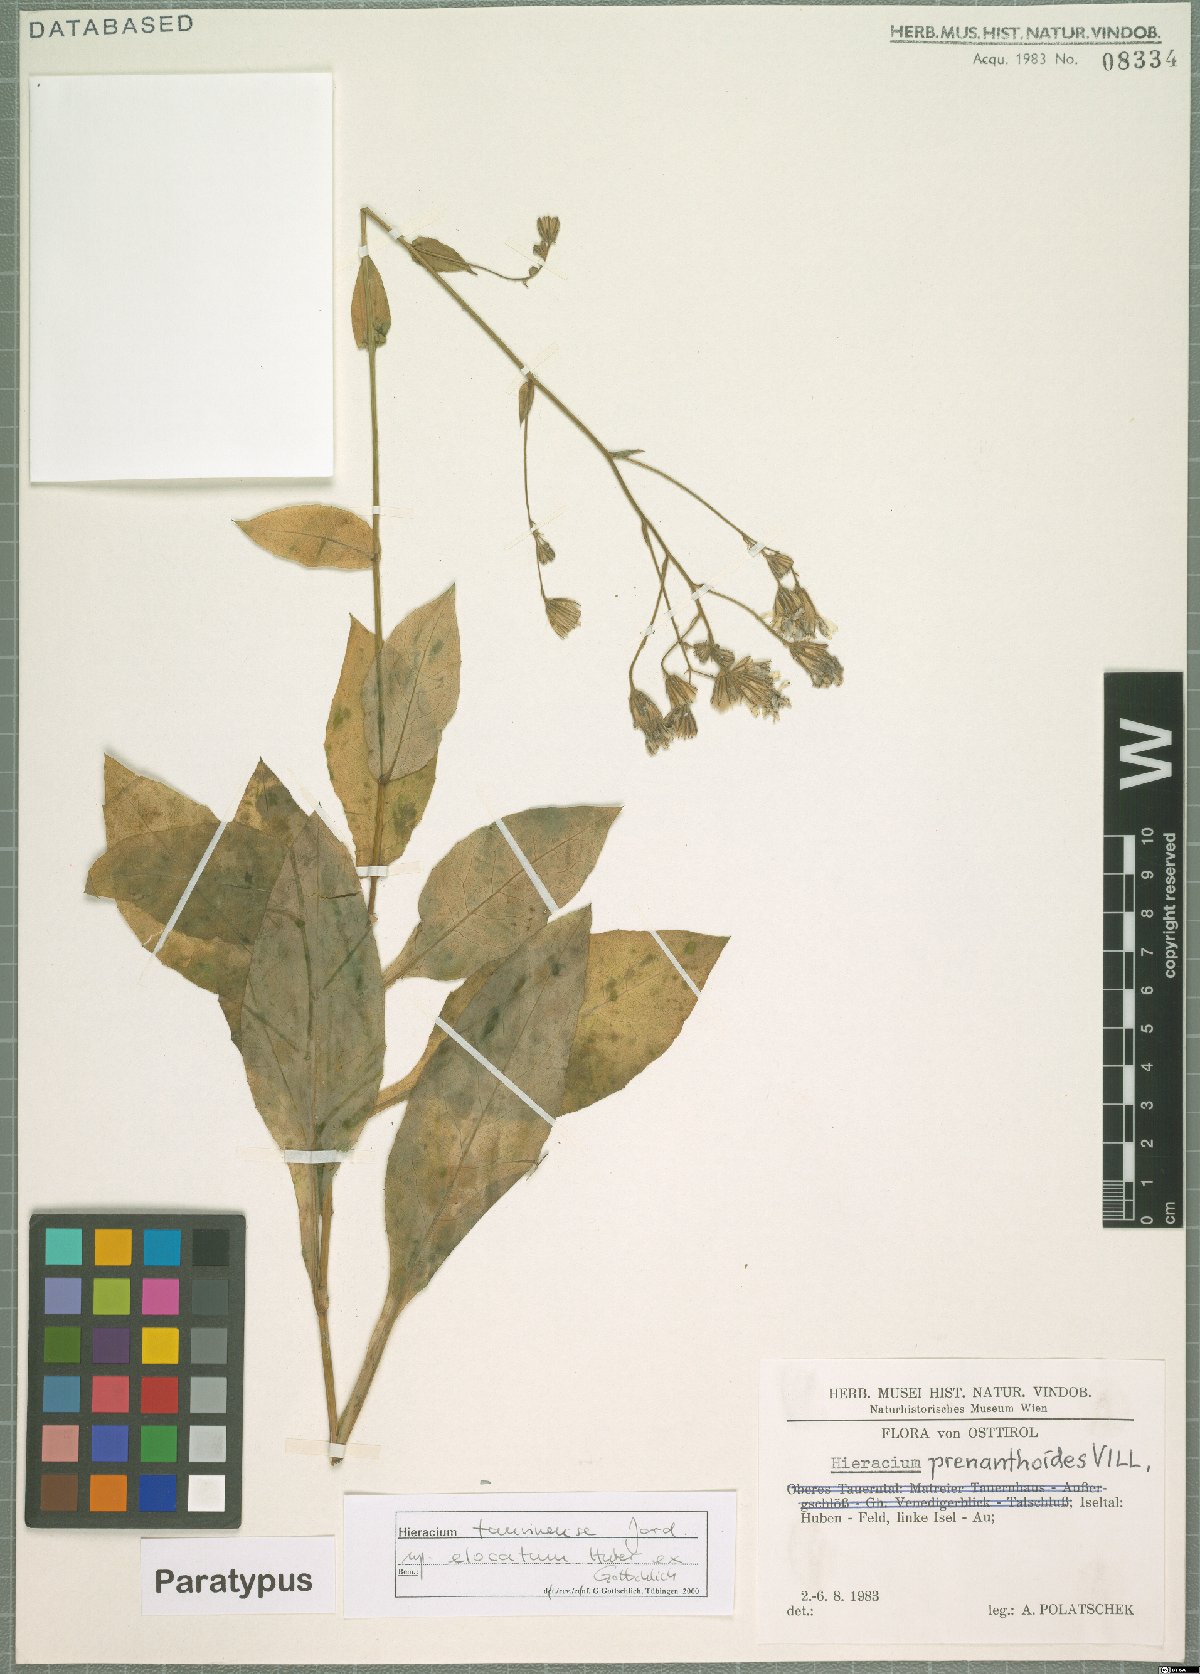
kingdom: Plantae
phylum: Tracheophyta
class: Magnoliopsida
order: Asterales
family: Asteraceae
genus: Hieracium
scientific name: Hieracium symphytaceum
